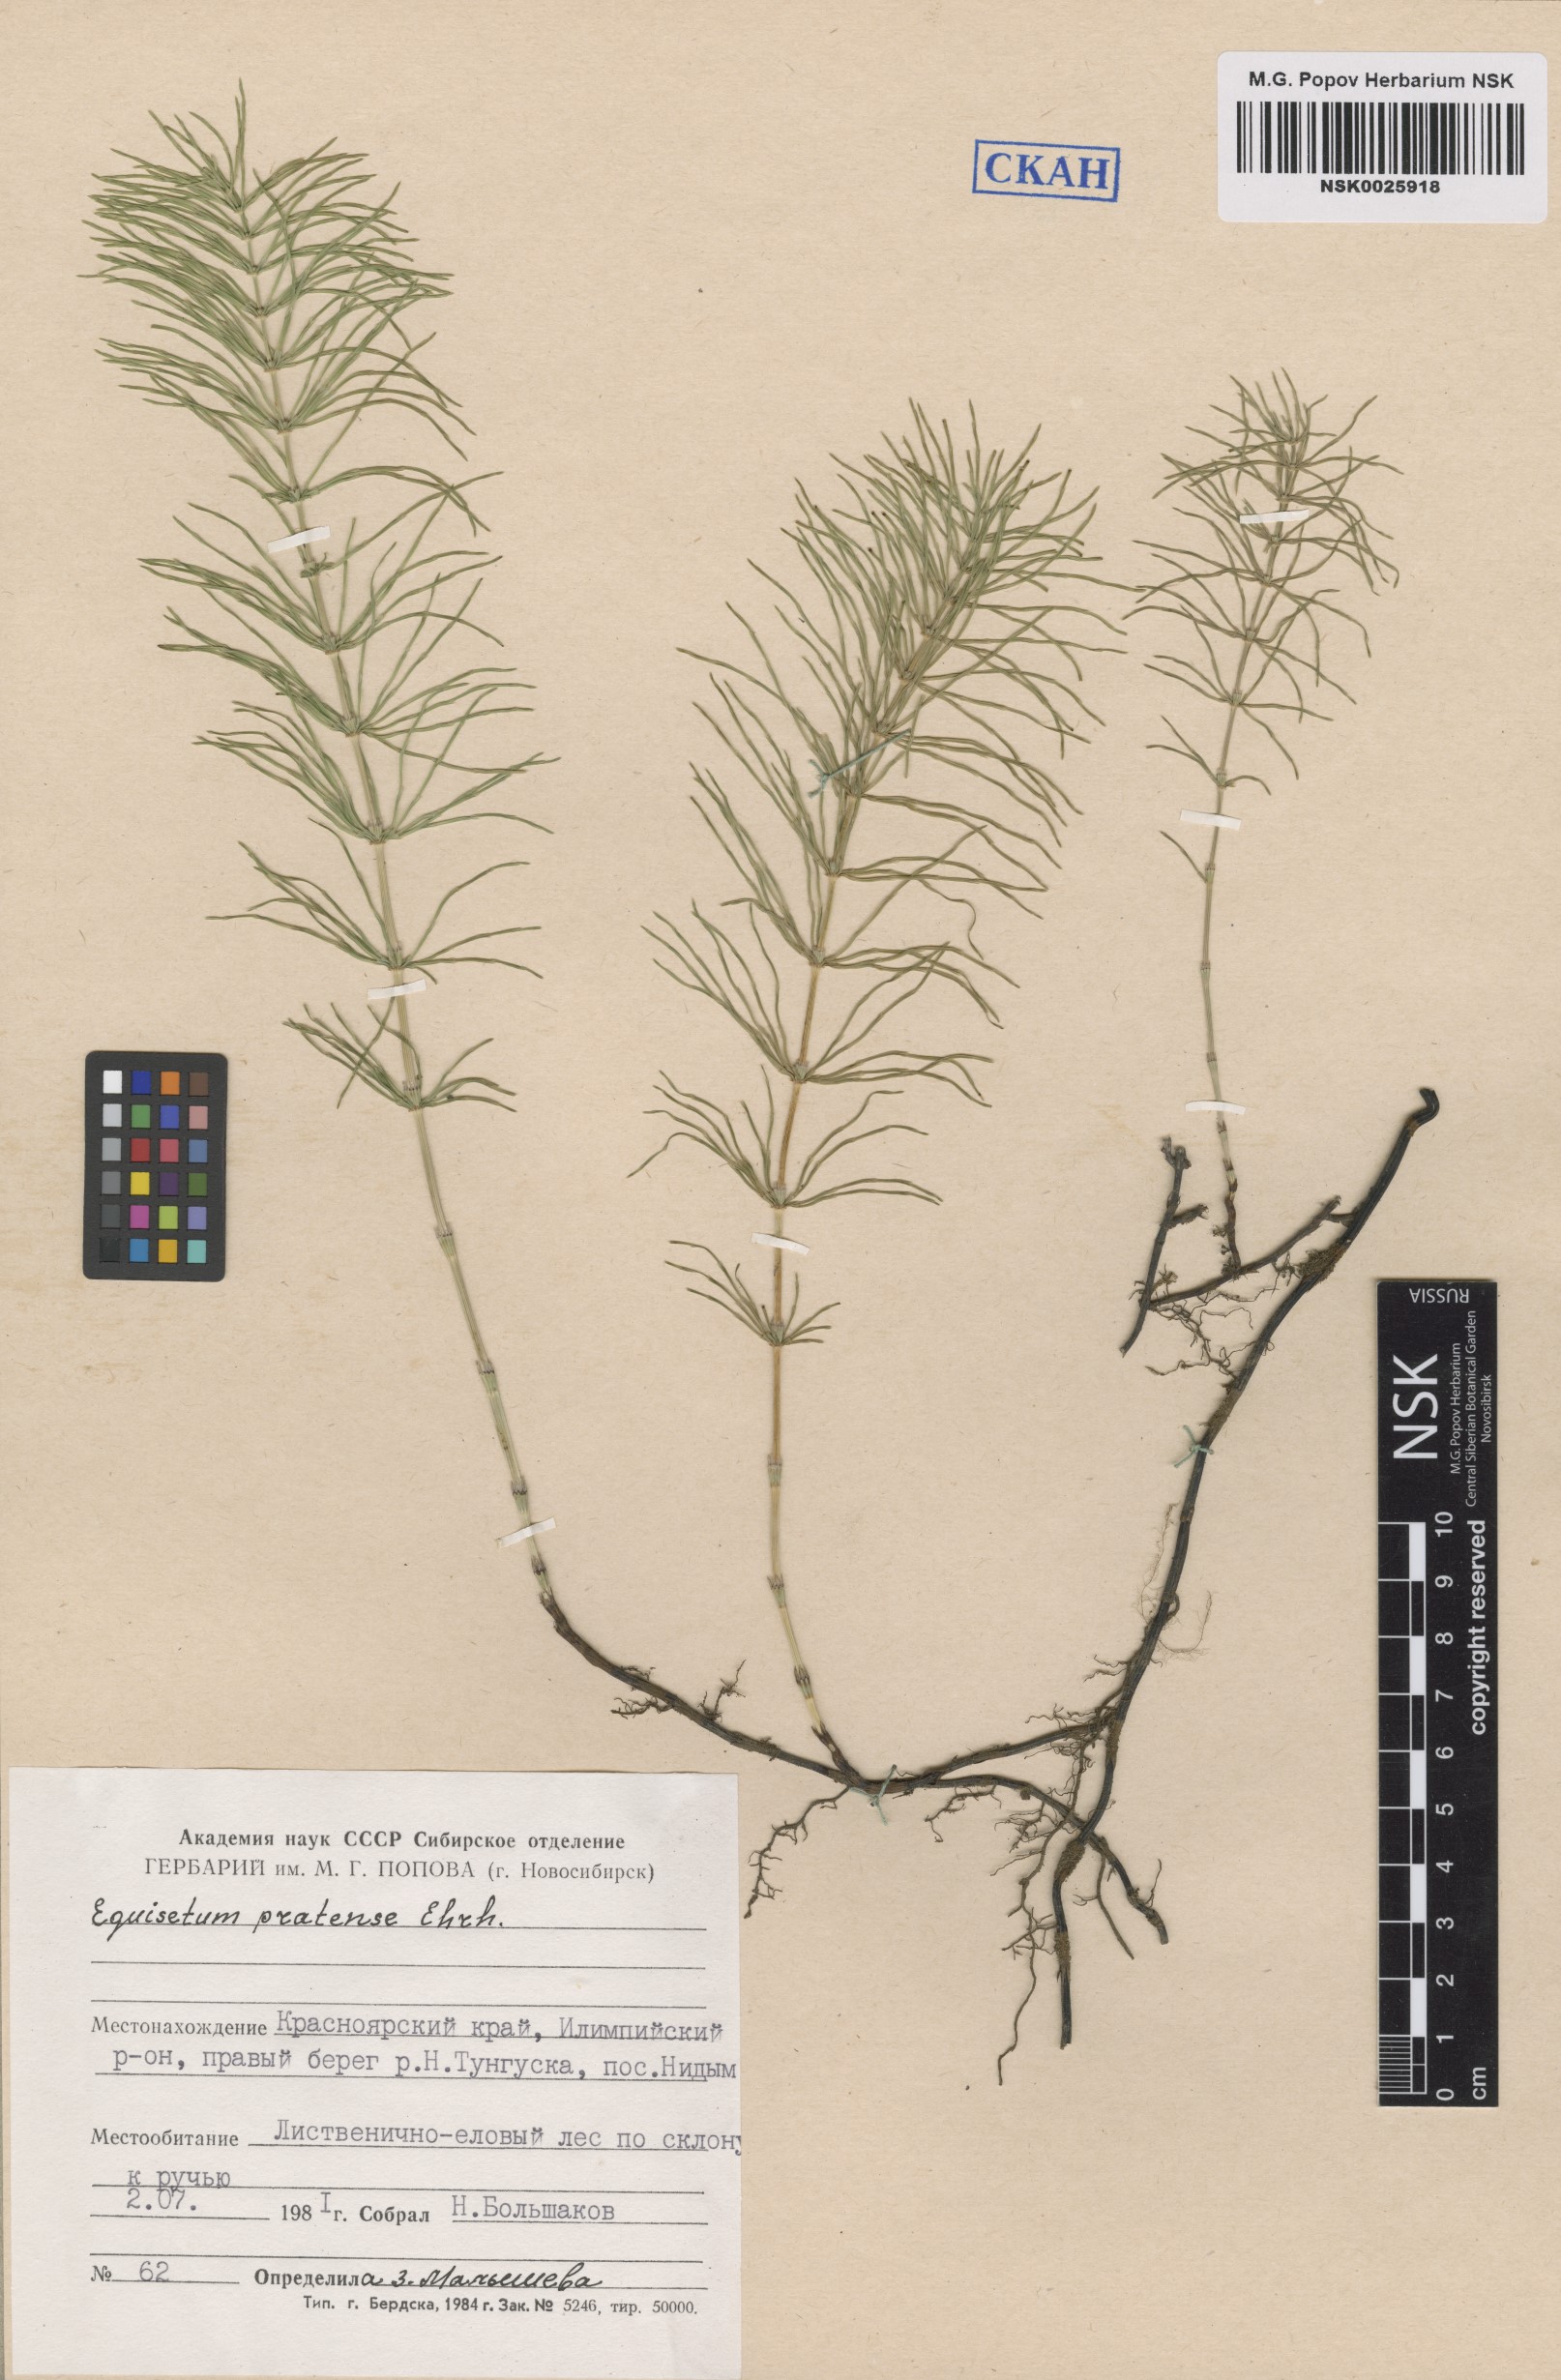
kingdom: Plantae
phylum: Tracheophyta
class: Polypodiopsida
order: Equisetales
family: Equisetaceae
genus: Equisetum
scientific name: Equisetum pratense
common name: Meadow horsetail
